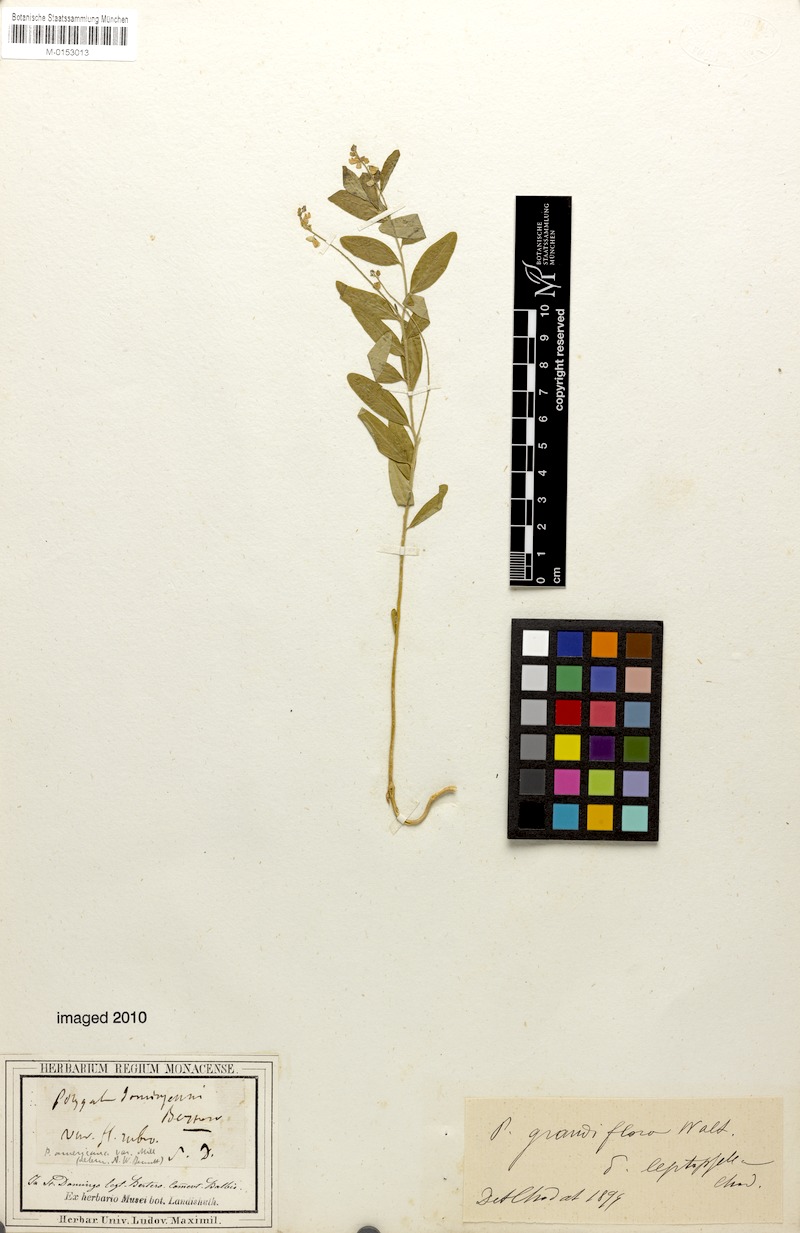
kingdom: Plantae
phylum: Tracheophyta
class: Magnoliopsida
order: Fabales
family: Polygalaceae
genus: Asemeia
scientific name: Asemeia grandiflora
